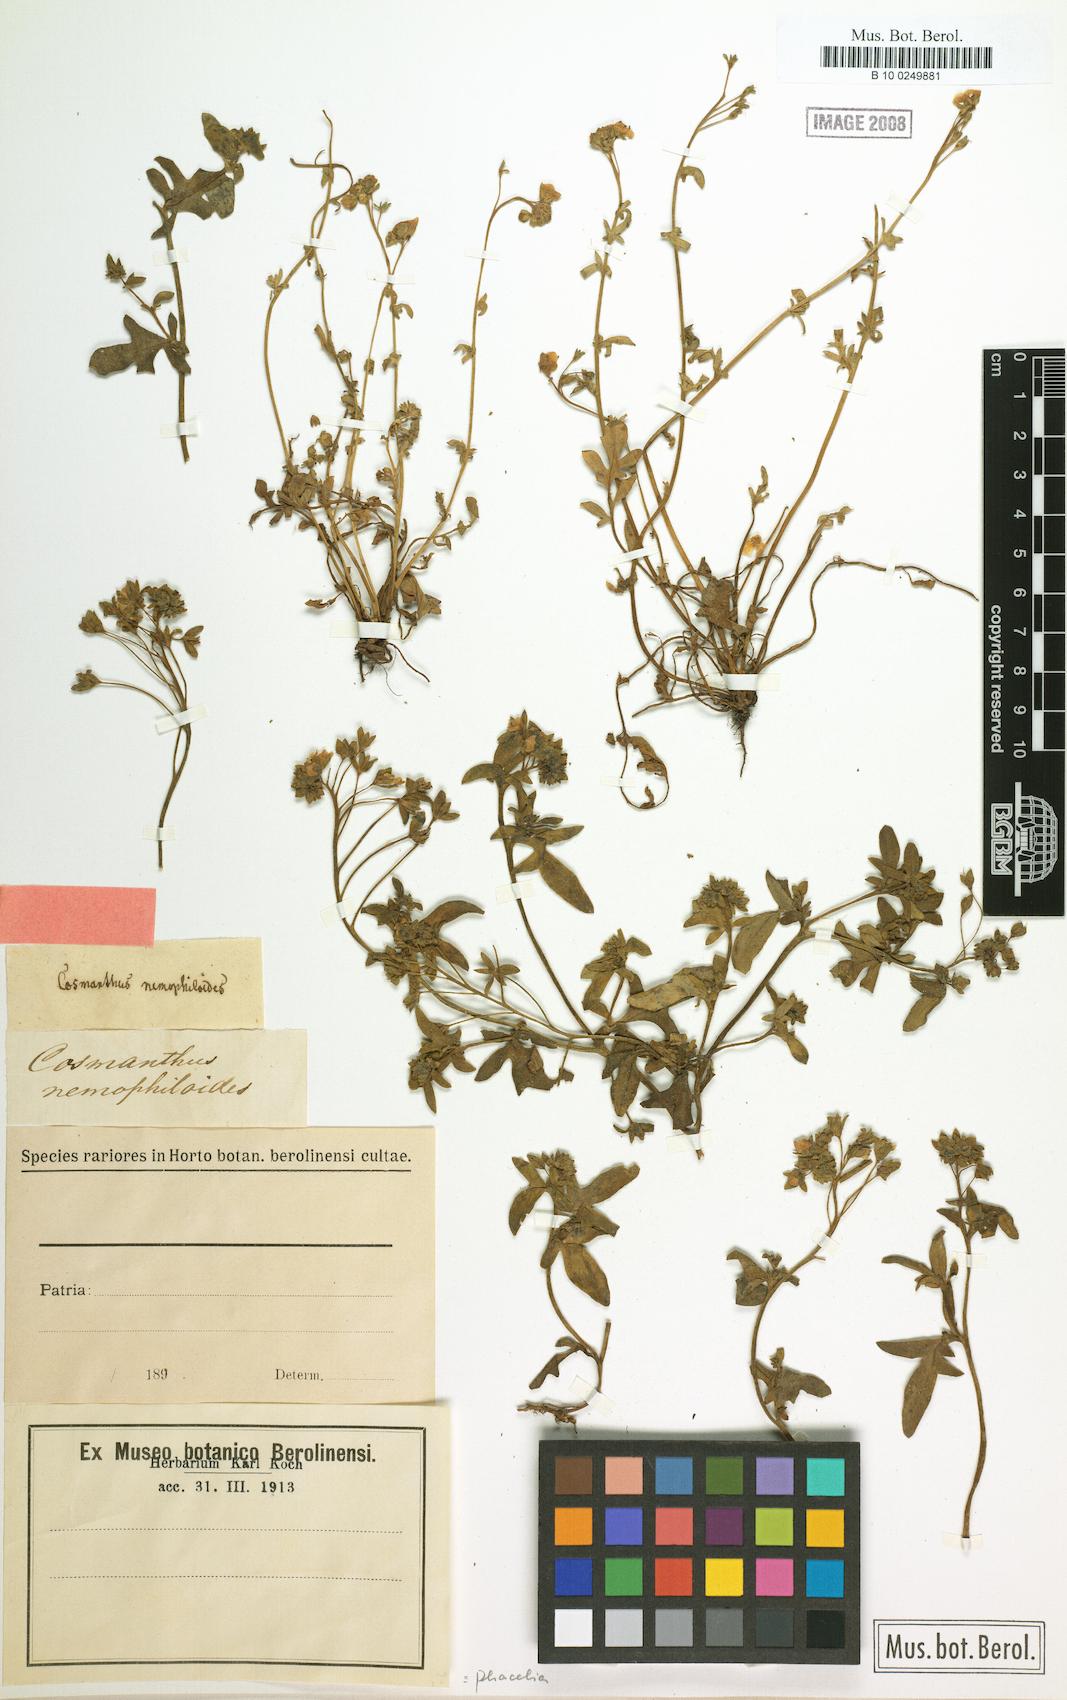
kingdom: Plantae
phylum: Tracheophyta
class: Magnoliopsida
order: Boraginales
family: Hydrophyllaceae
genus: Phacelia
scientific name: Phacelia davidsonii
